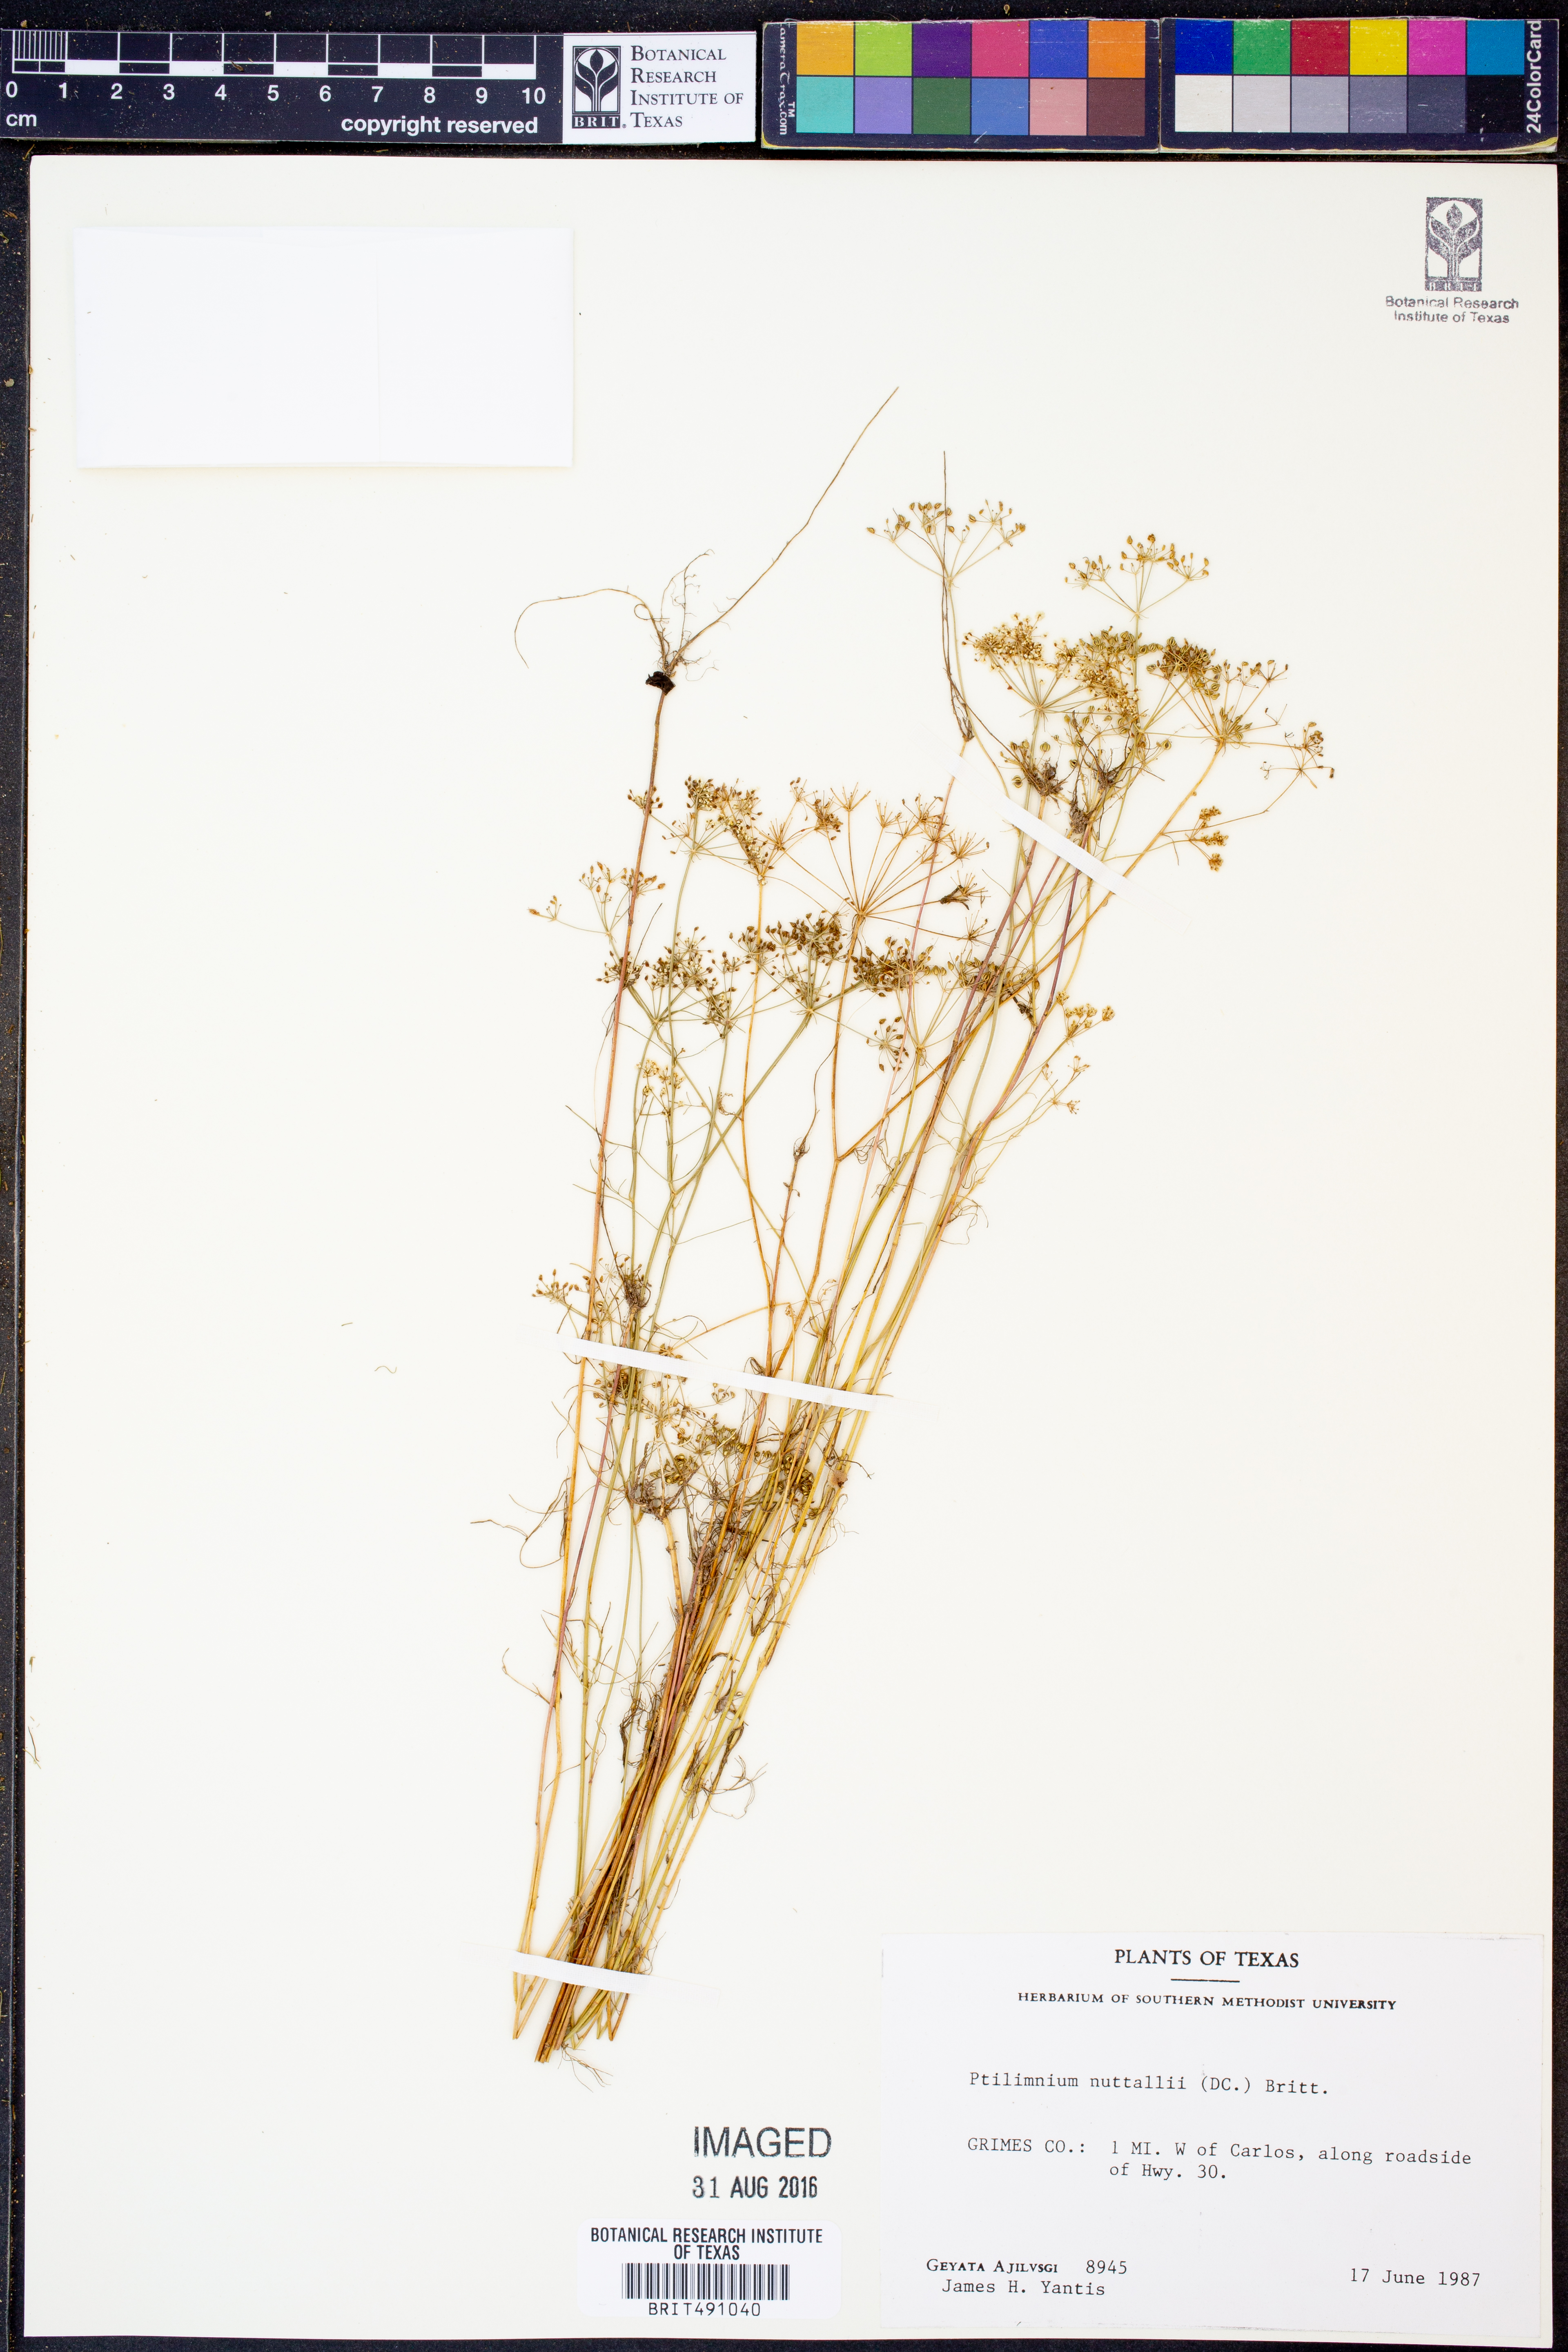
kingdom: Plantae
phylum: Tracheophyta
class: Magnoliopsida
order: Apiales
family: Apiaceae
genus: Ptilimnium
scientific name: Ptilimnium nuttallii
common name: Ozark bishop's-weed
